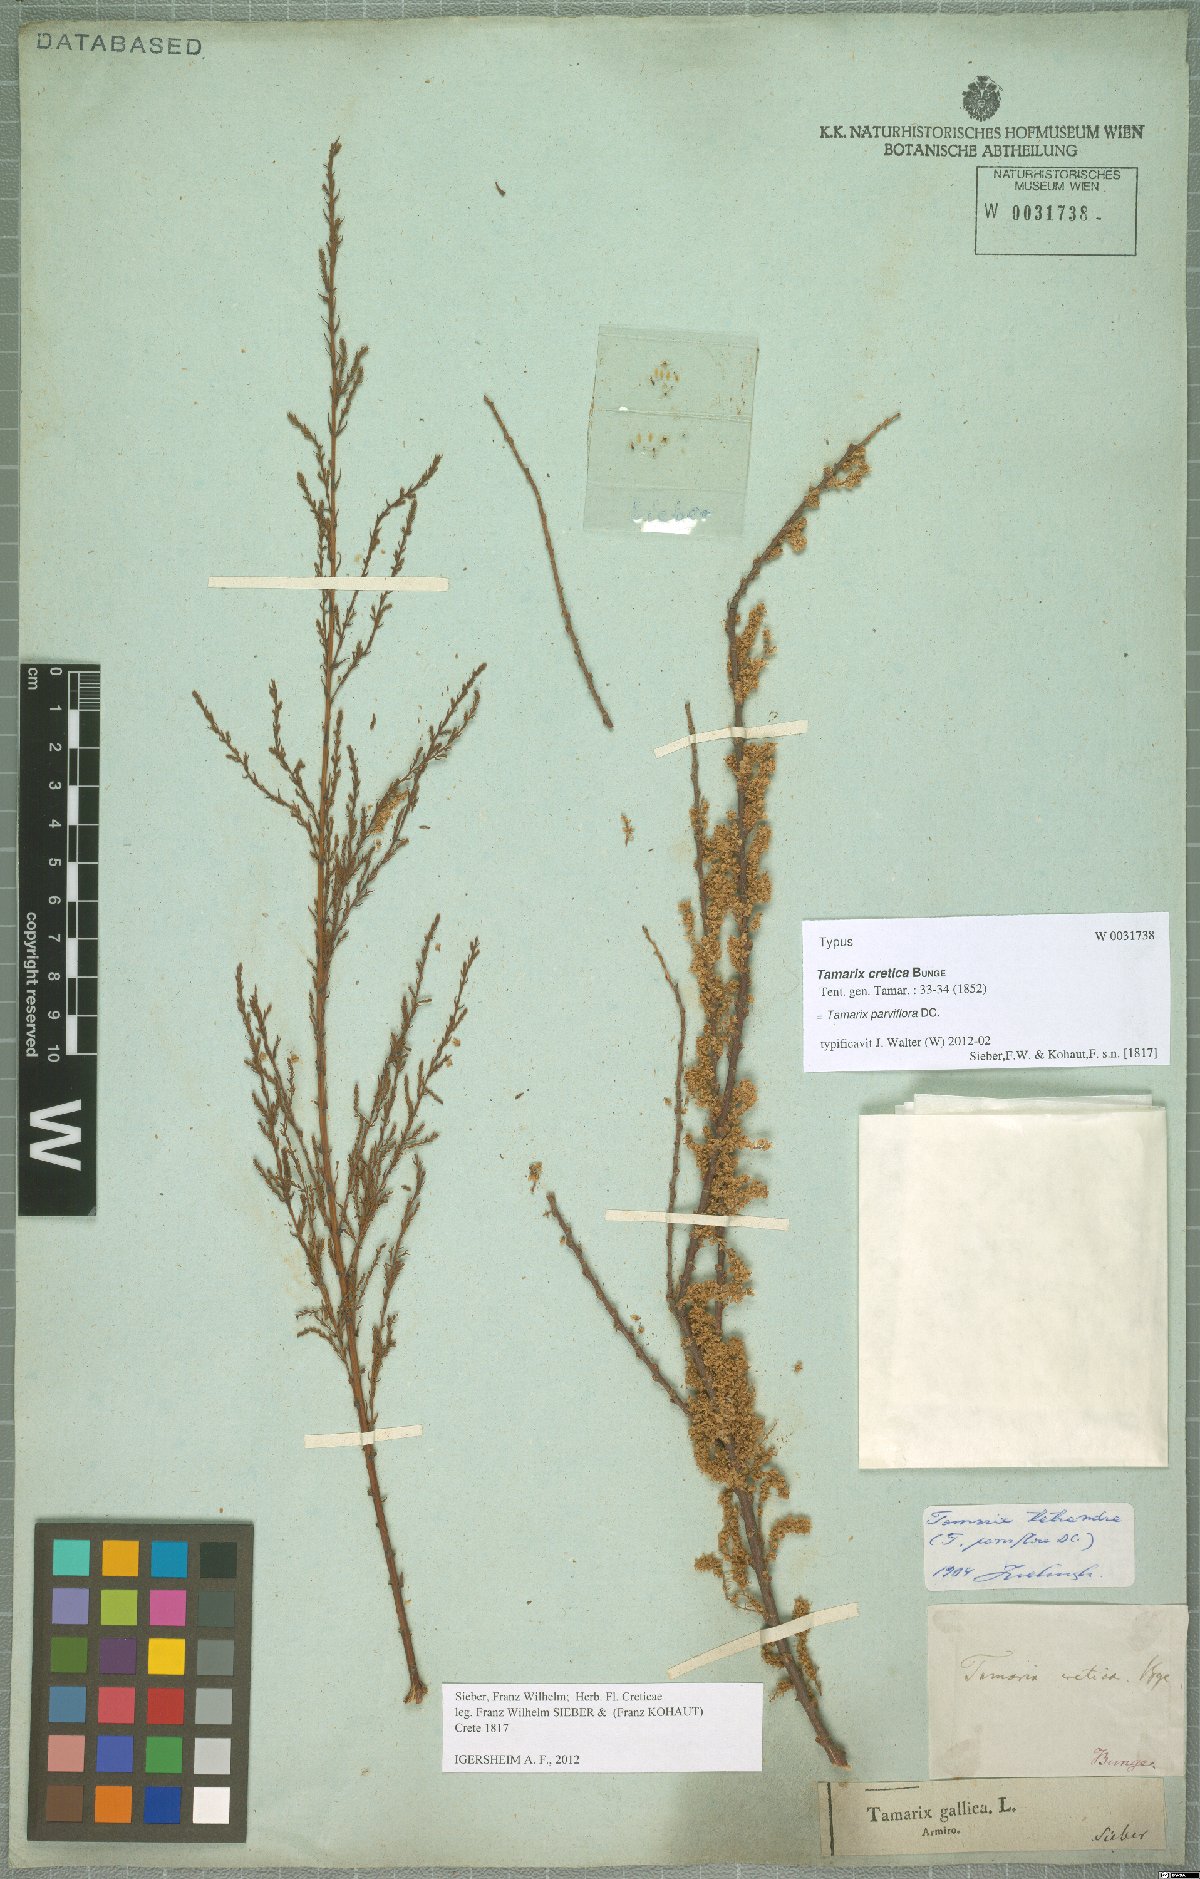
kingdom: Plantae
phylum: Tracheophyta
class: Magnoliopsida
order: Caryophyllales
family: Tamaricaceae
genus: Tamarix
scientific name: Tamarix parviflora
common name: Smallflower tamarisk
